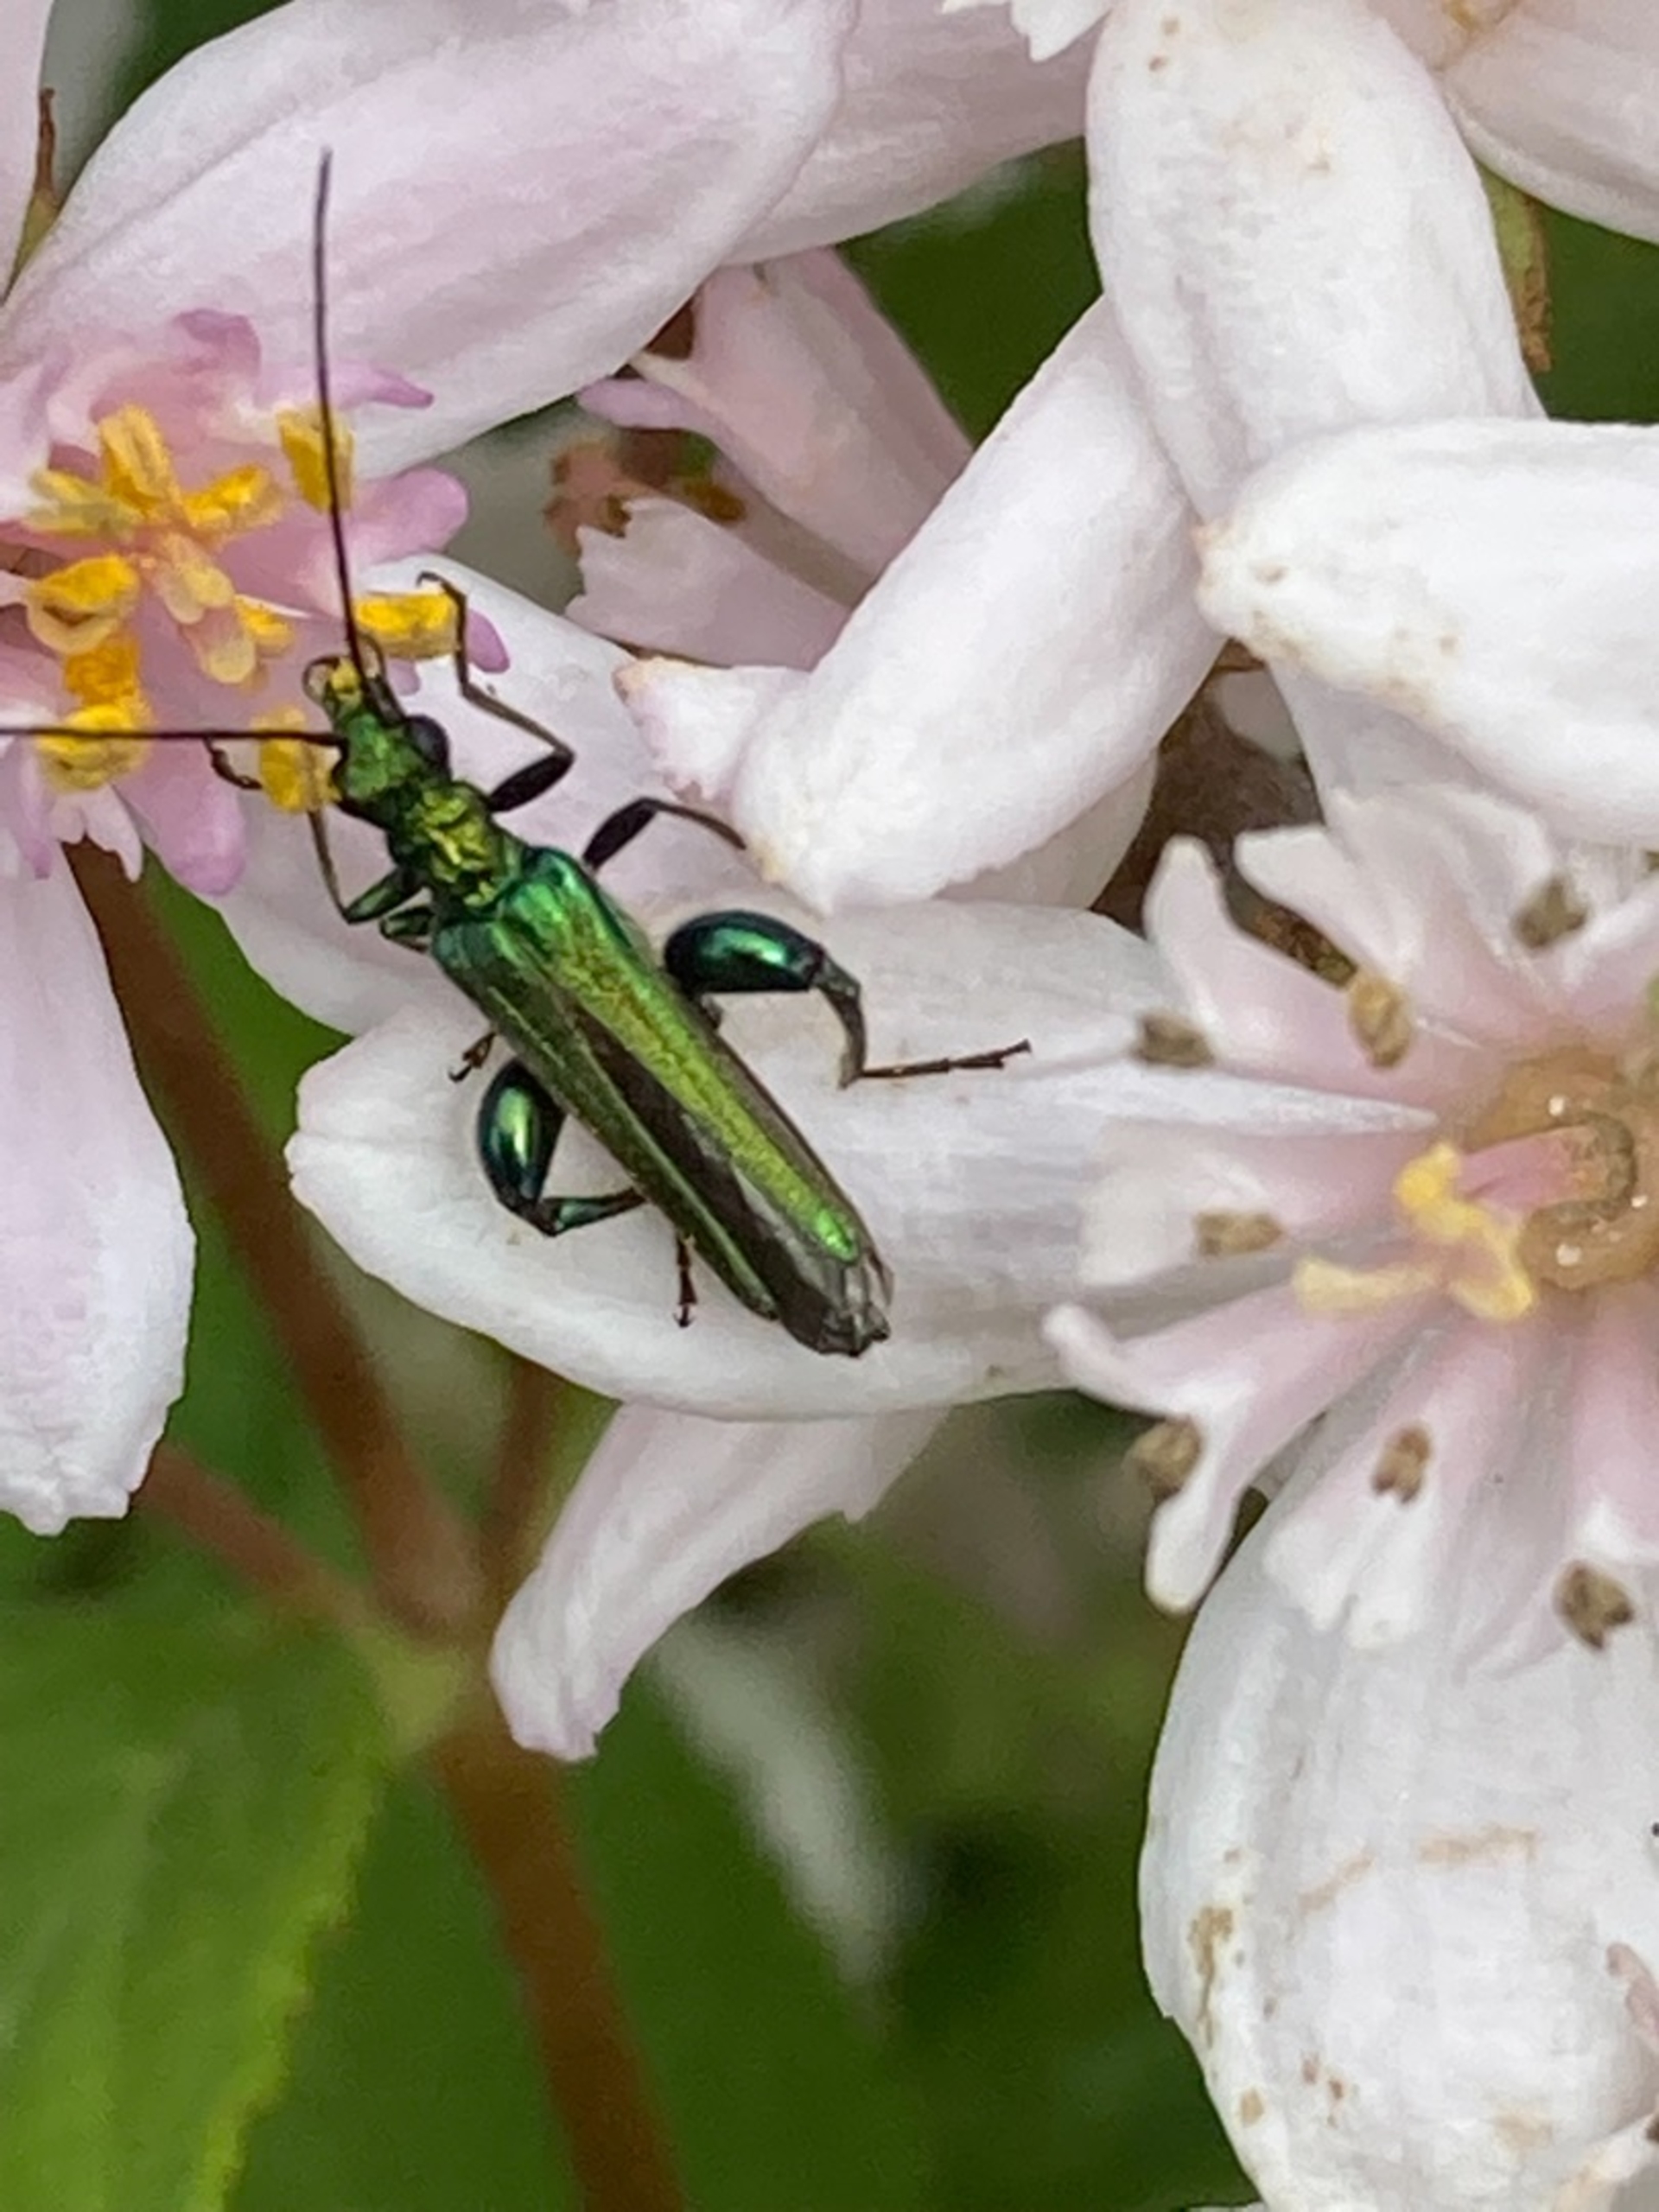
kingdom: Animalia
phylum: Arthropoda
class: Insecta
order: Coleoptera
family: Oedemeridae
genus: Oedemera
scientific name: Oedemera nobilis
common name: Tyklårssolbille
